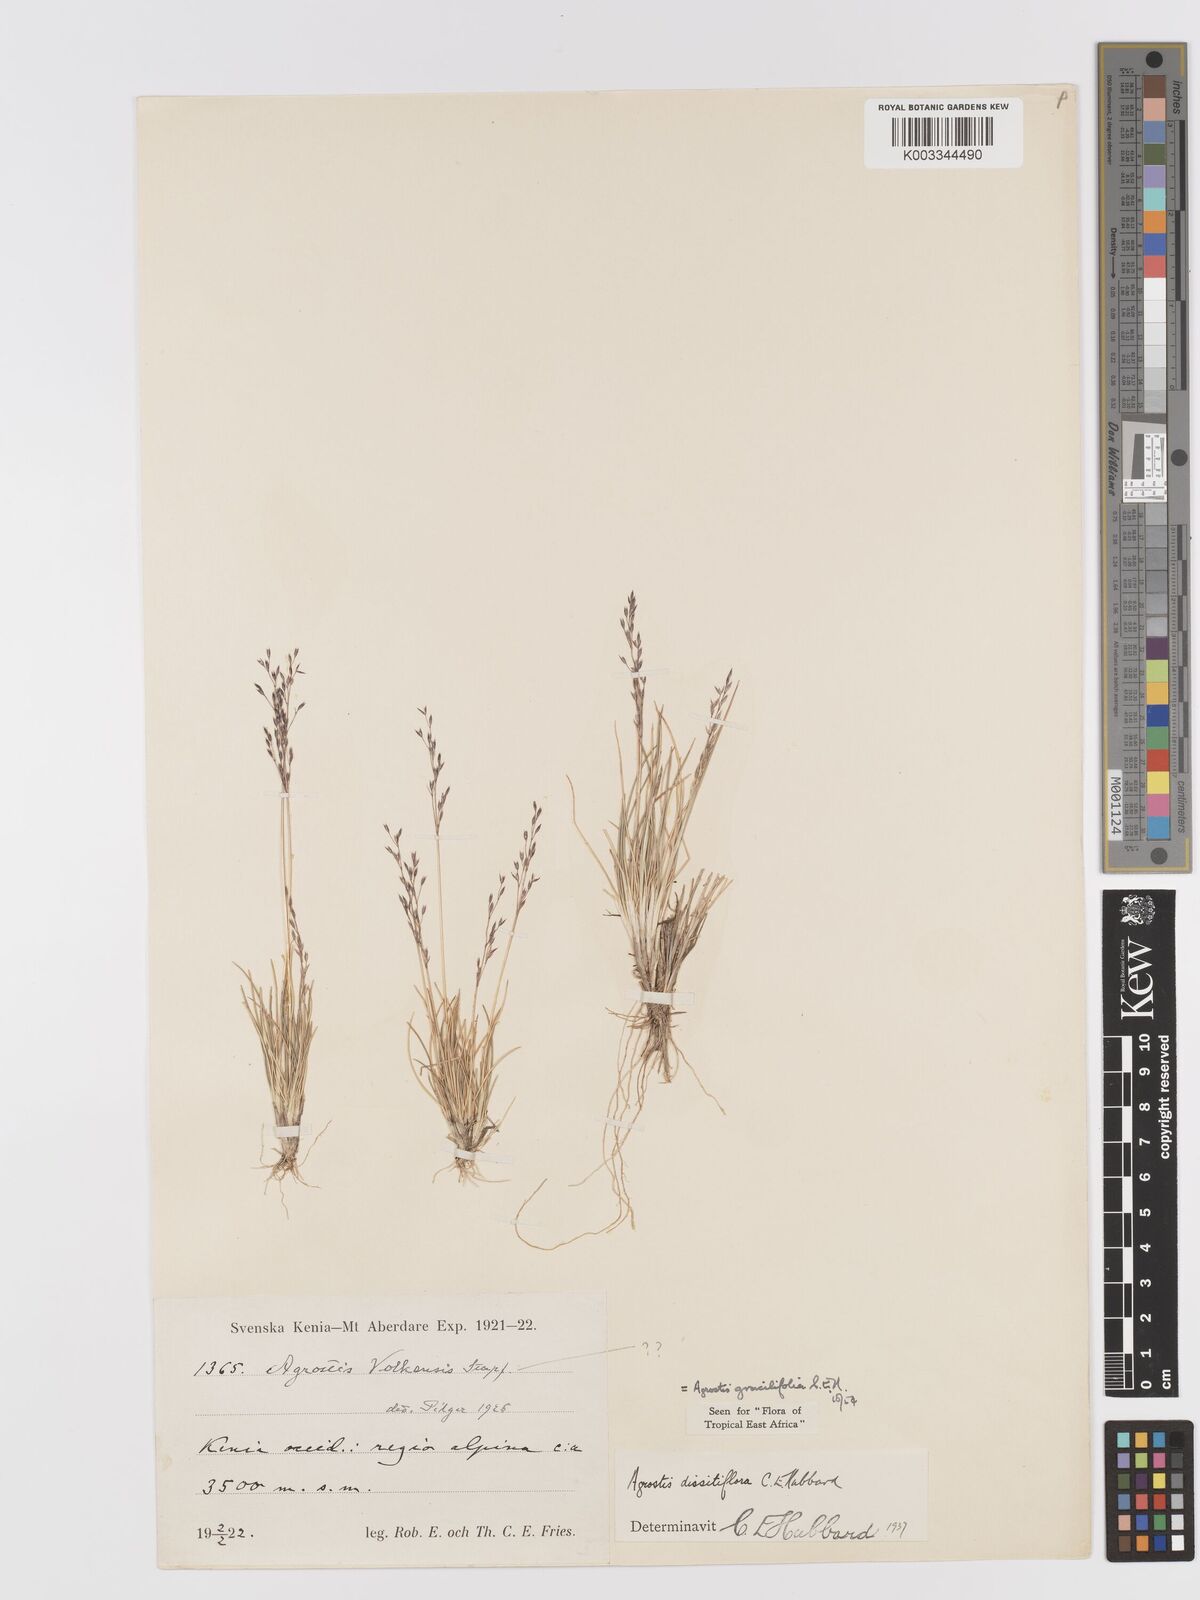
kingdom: Plantae
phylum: Tracheophyta
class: Liliopsida
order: Poales
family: Poaceae
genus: Agrostis
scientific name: Agrostis gracilifolia
